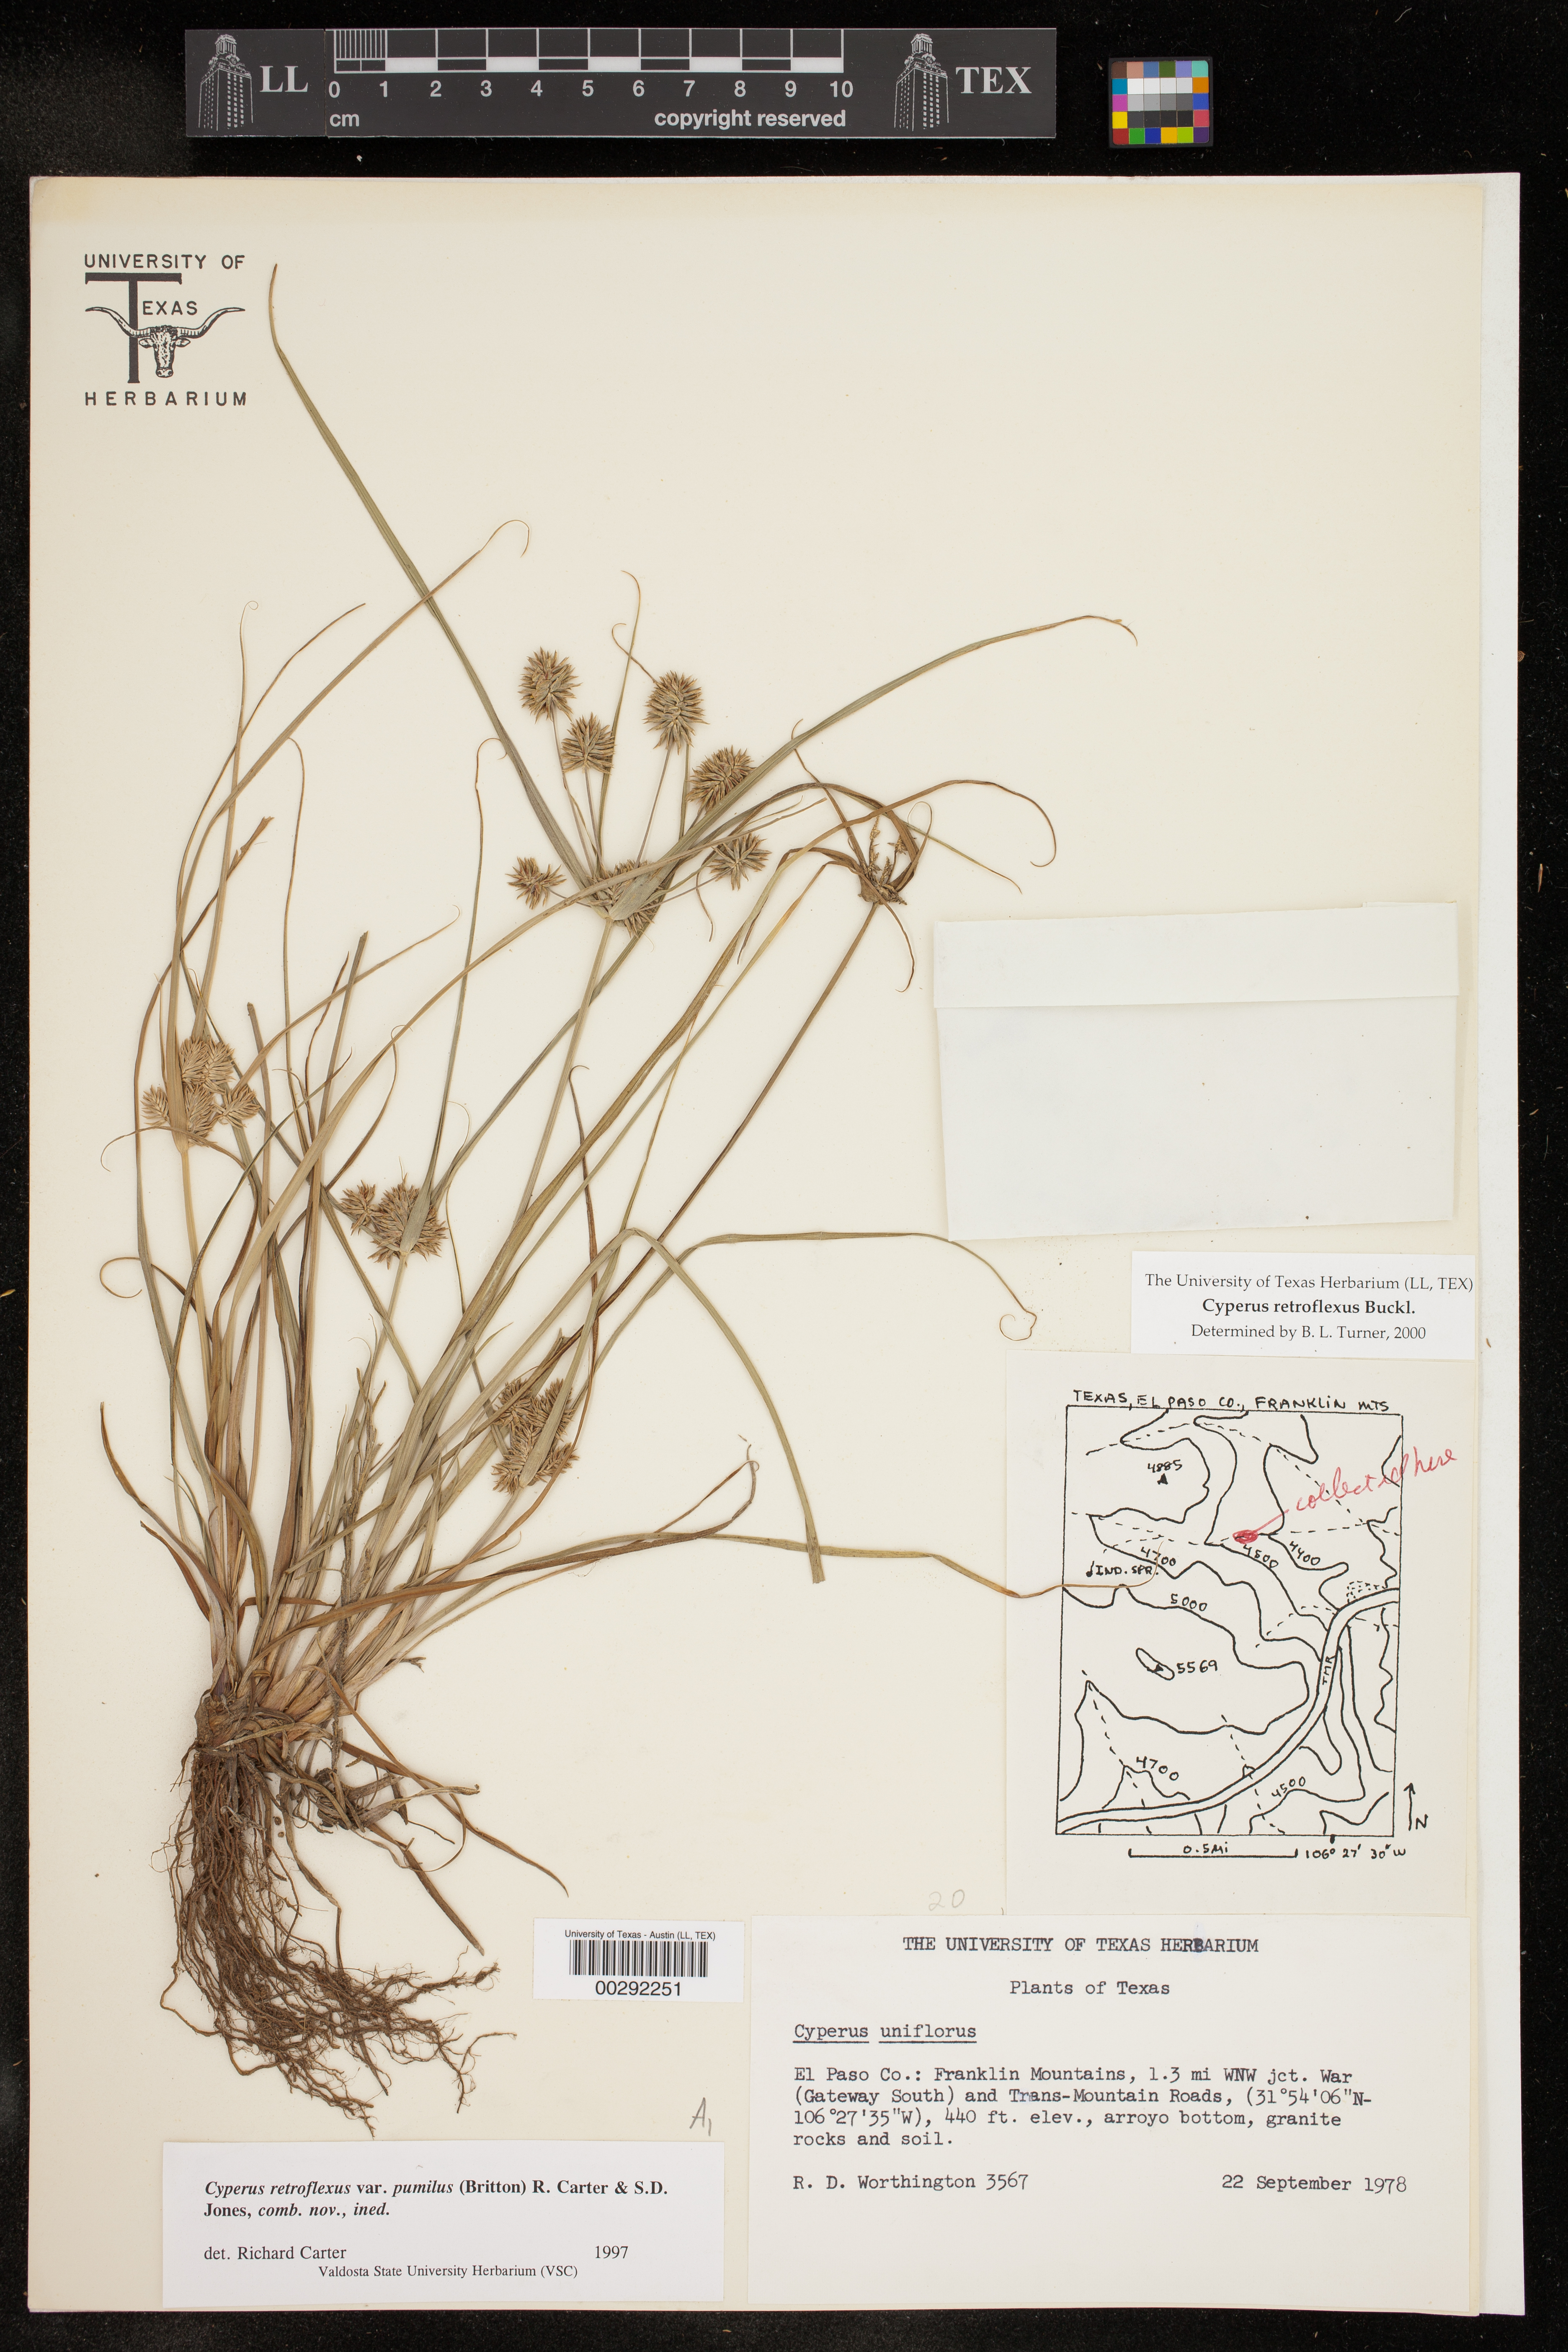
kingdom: Plantae
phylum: Tracheophyta
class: Liliopsida
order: Poales
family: Cyperaceae
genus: Cyperus
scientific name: Cyperus retroflexus
